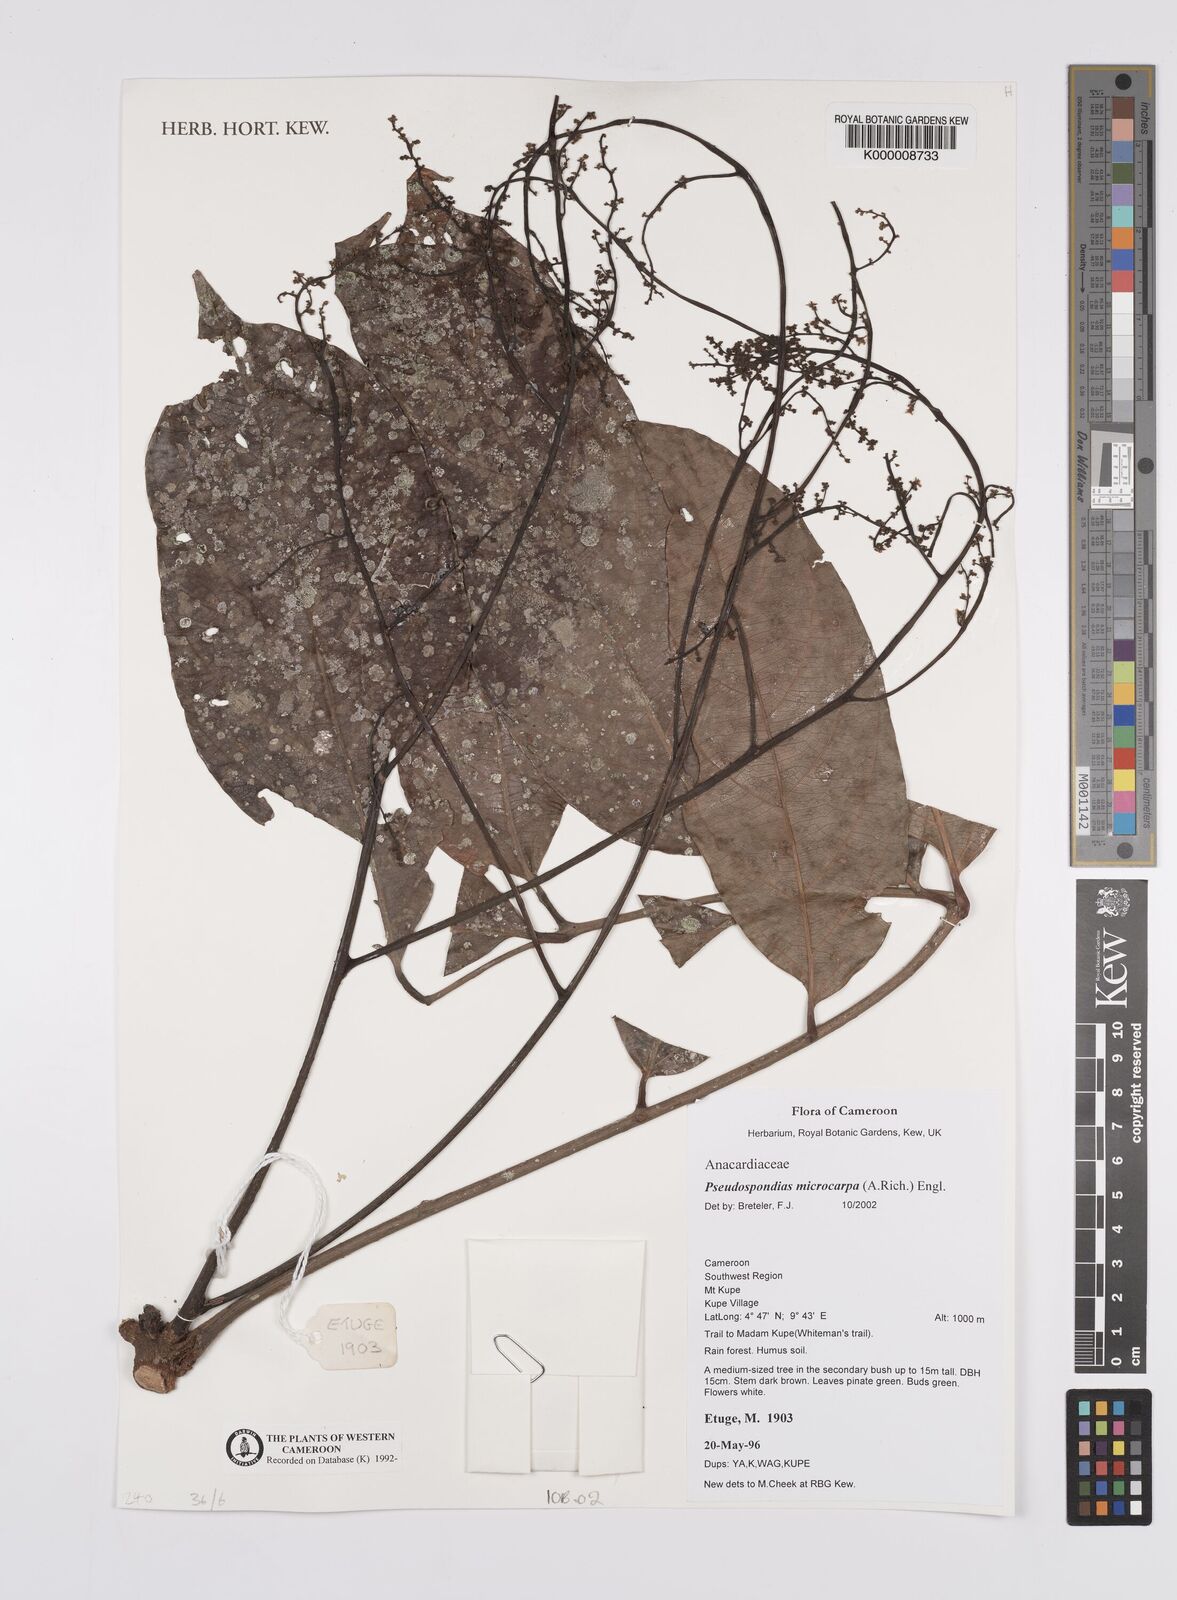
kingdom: Plantae
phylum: Tracheophyta
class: Magnoliopsida
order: Sapindales
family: Anacardiaceae
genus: Pseudospondias
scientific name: Pseudospondias microcarpa
